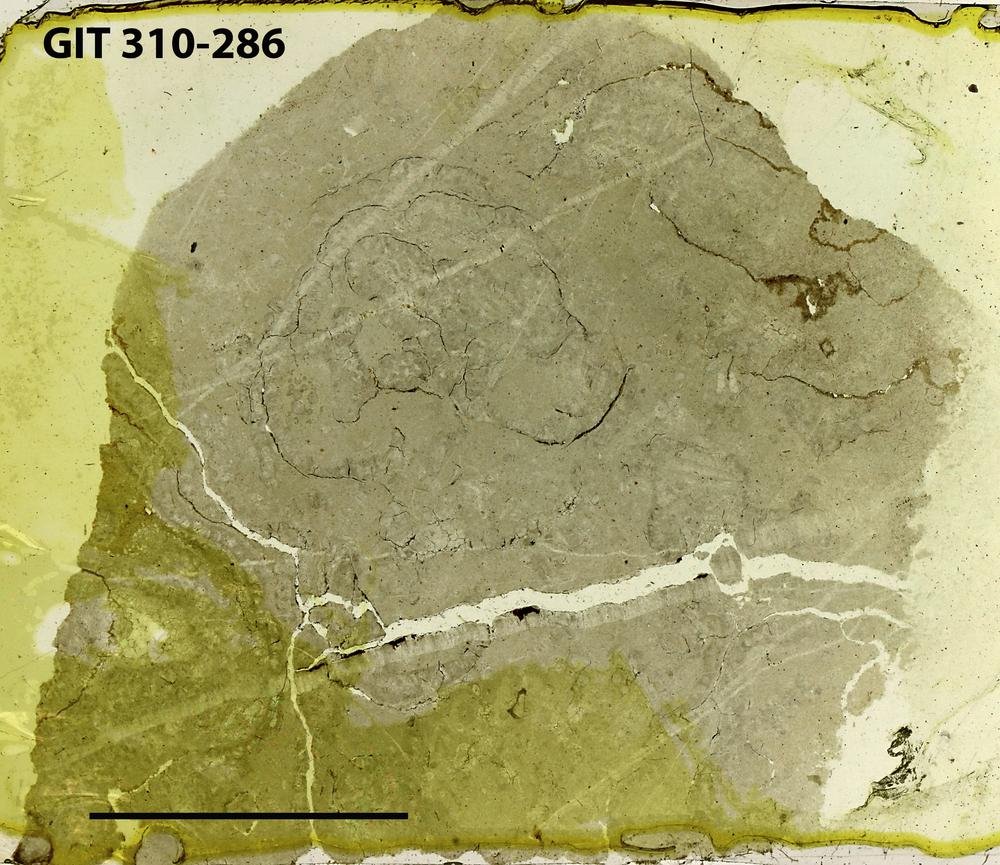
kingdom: Animalia
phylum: Porifera
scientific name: Porifera
